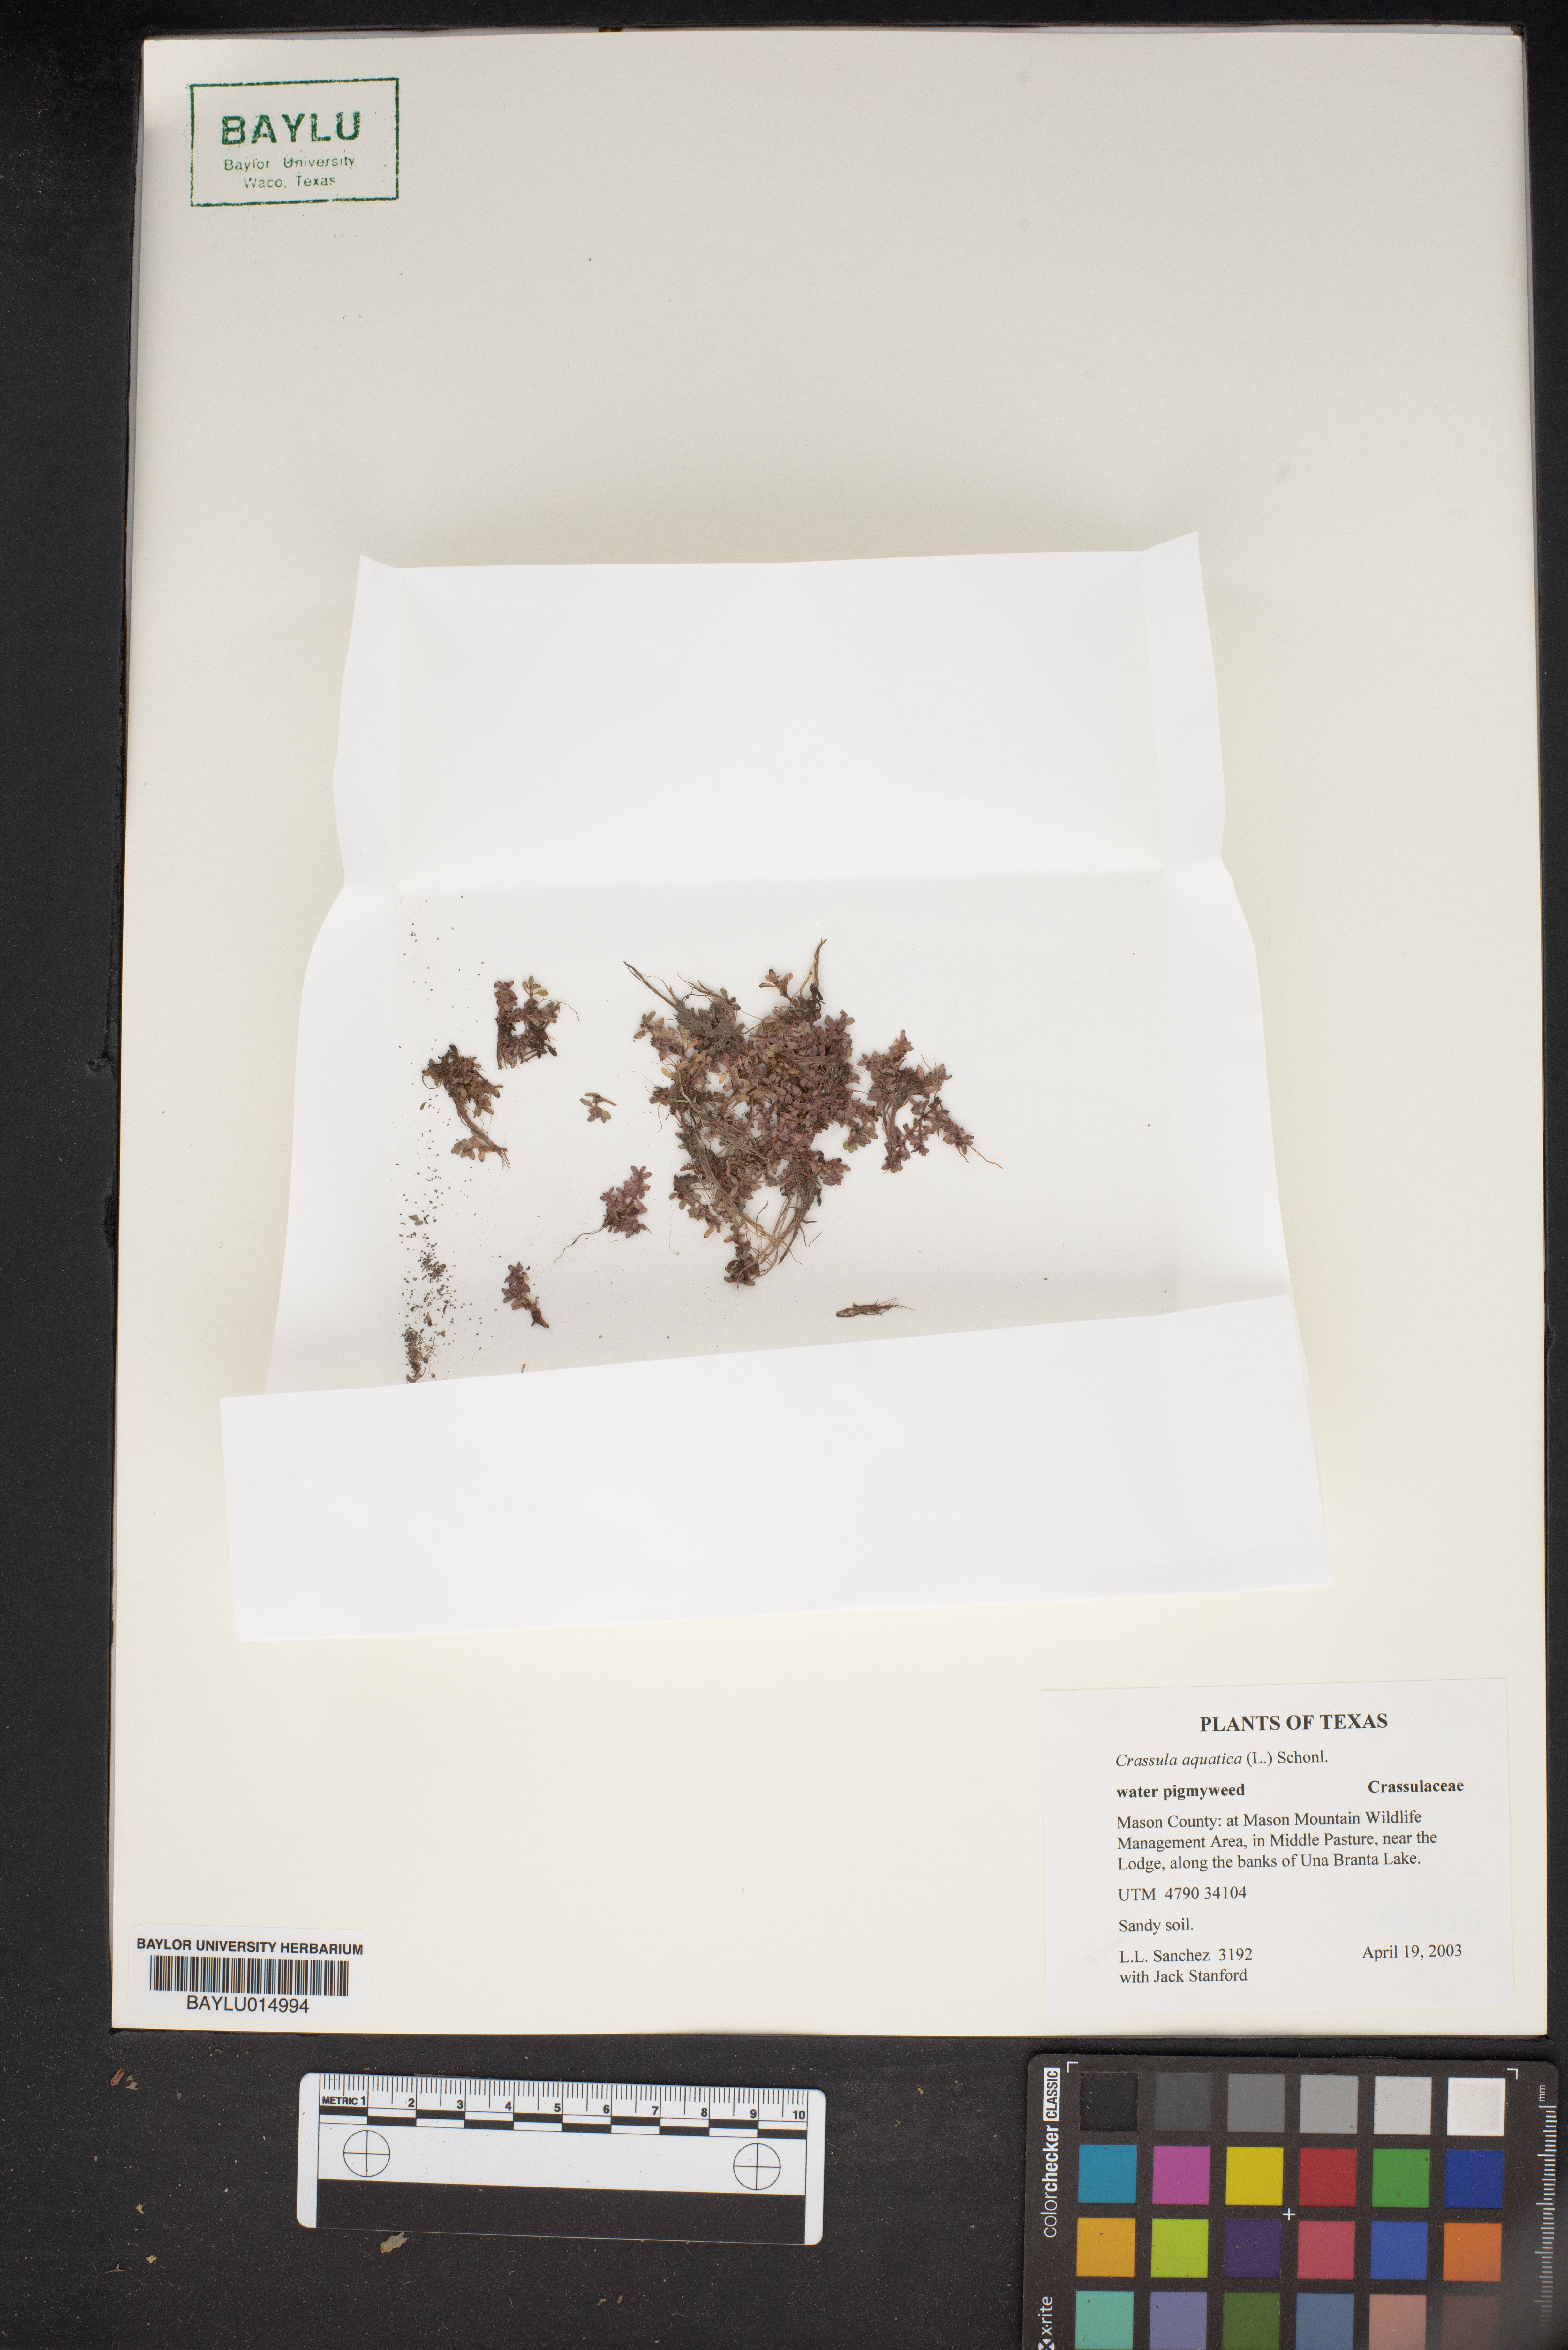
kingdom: Plantae
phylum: Tracheophyta
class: Magnoliopsida
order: Saxifragales
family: Crassulaceae
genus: Crassula
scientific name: Crassula aquatica
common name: Pigmyweed
